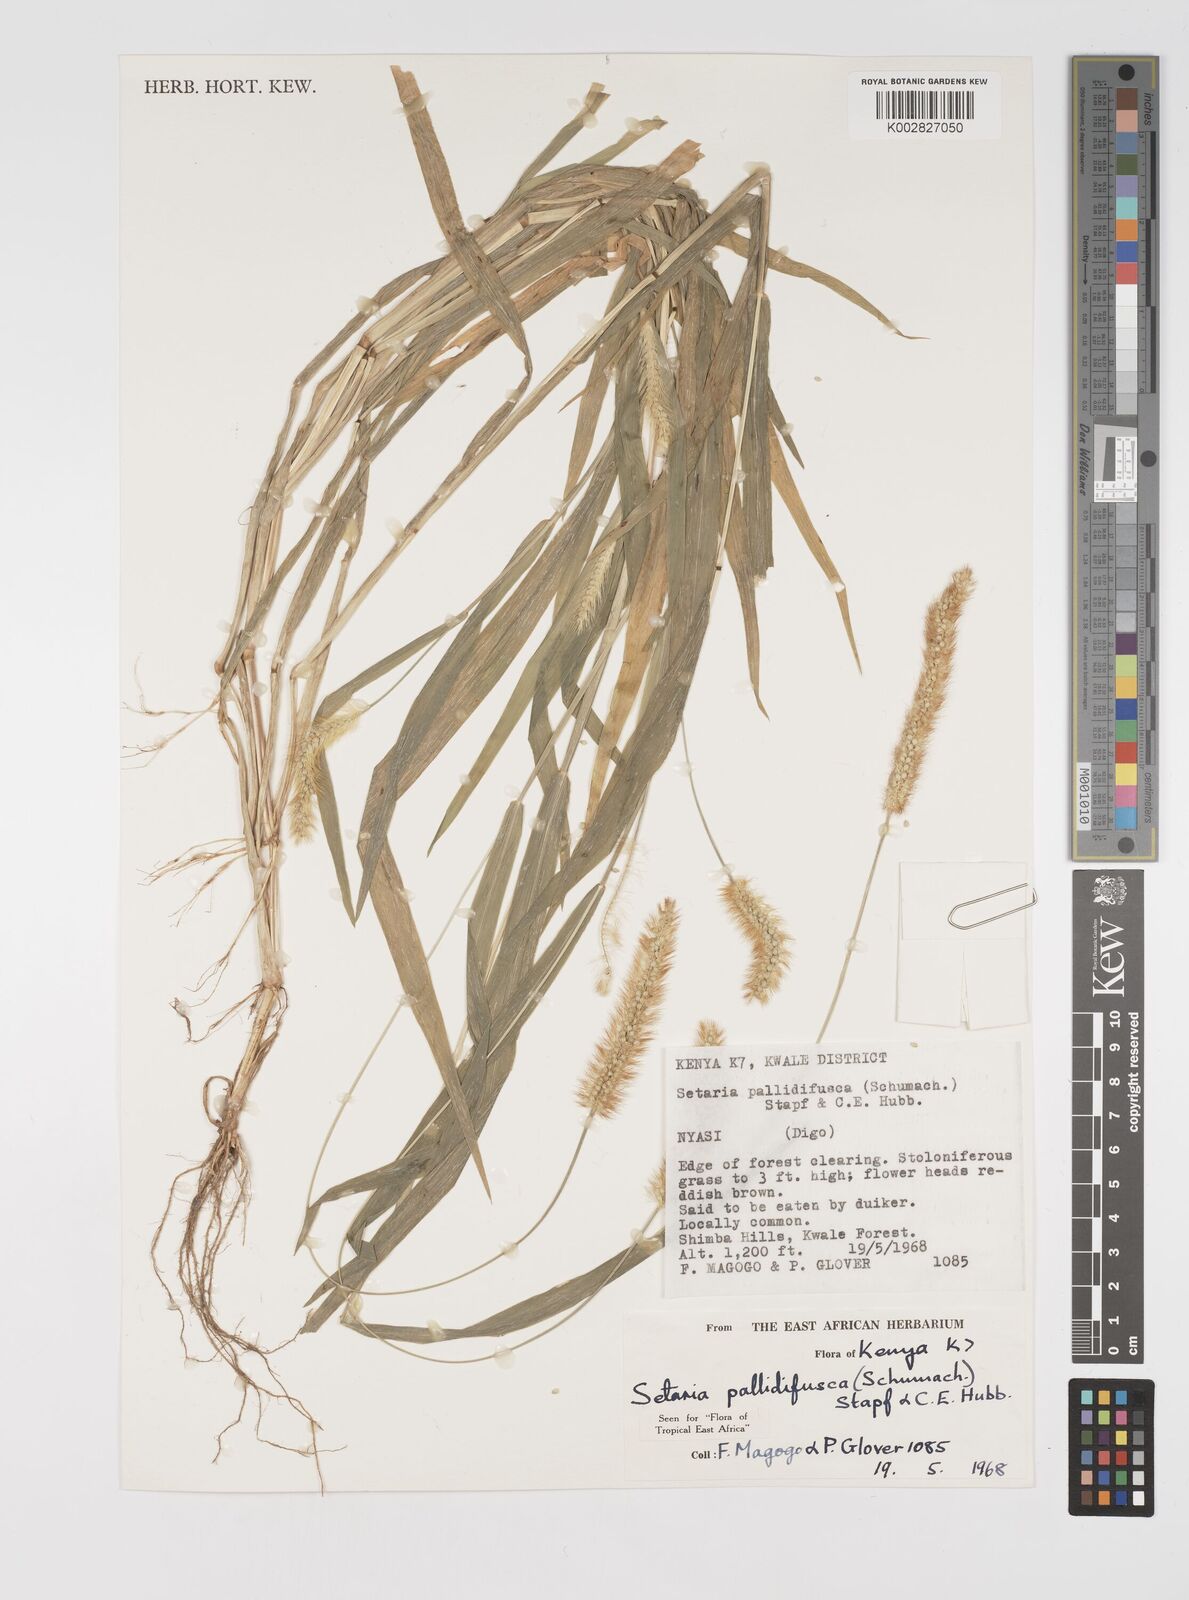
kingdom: Plantae
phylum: Tracheophyta
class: Liliopsida
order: Poales
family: Poaceae
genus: Setaria
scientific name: Setaria pumila
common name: Yellow bristle-grass
